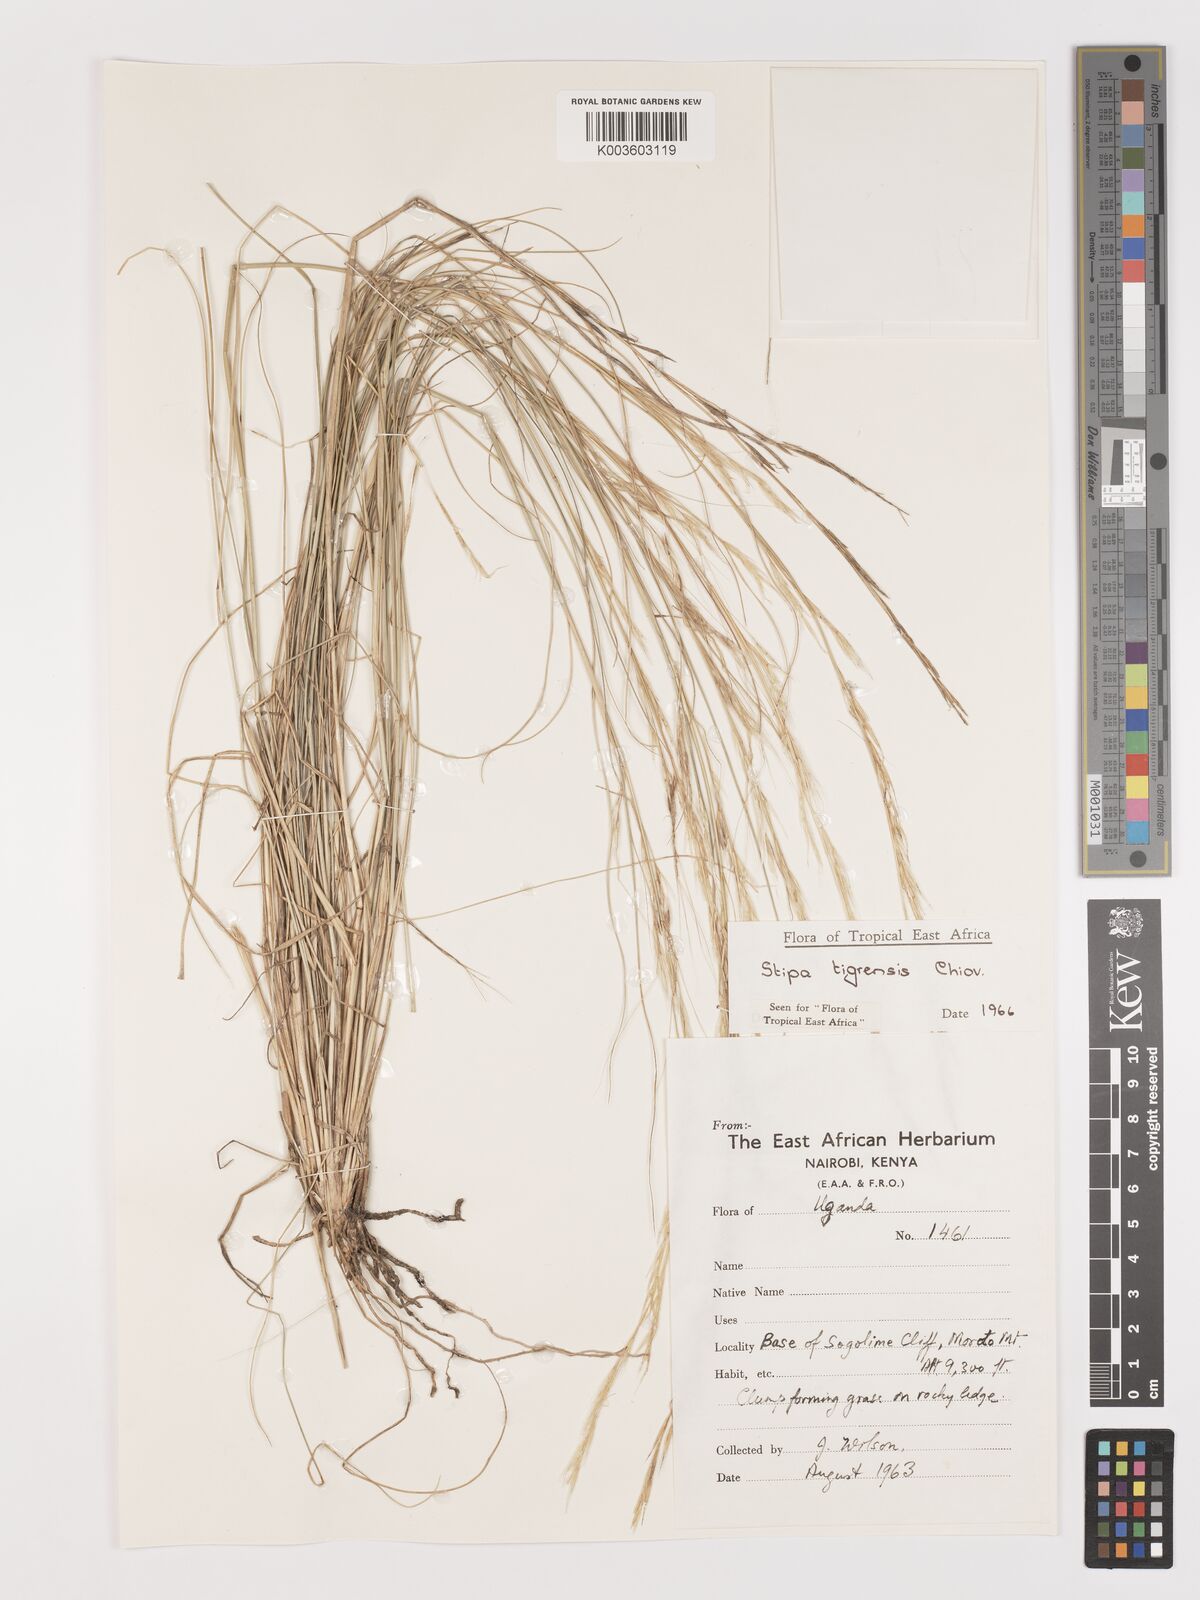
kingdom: Plantae
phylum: Tracheophyta
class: Liliopsida
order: Poales
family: Poaceae
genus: Stipa
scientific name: Stipa tigrensis
